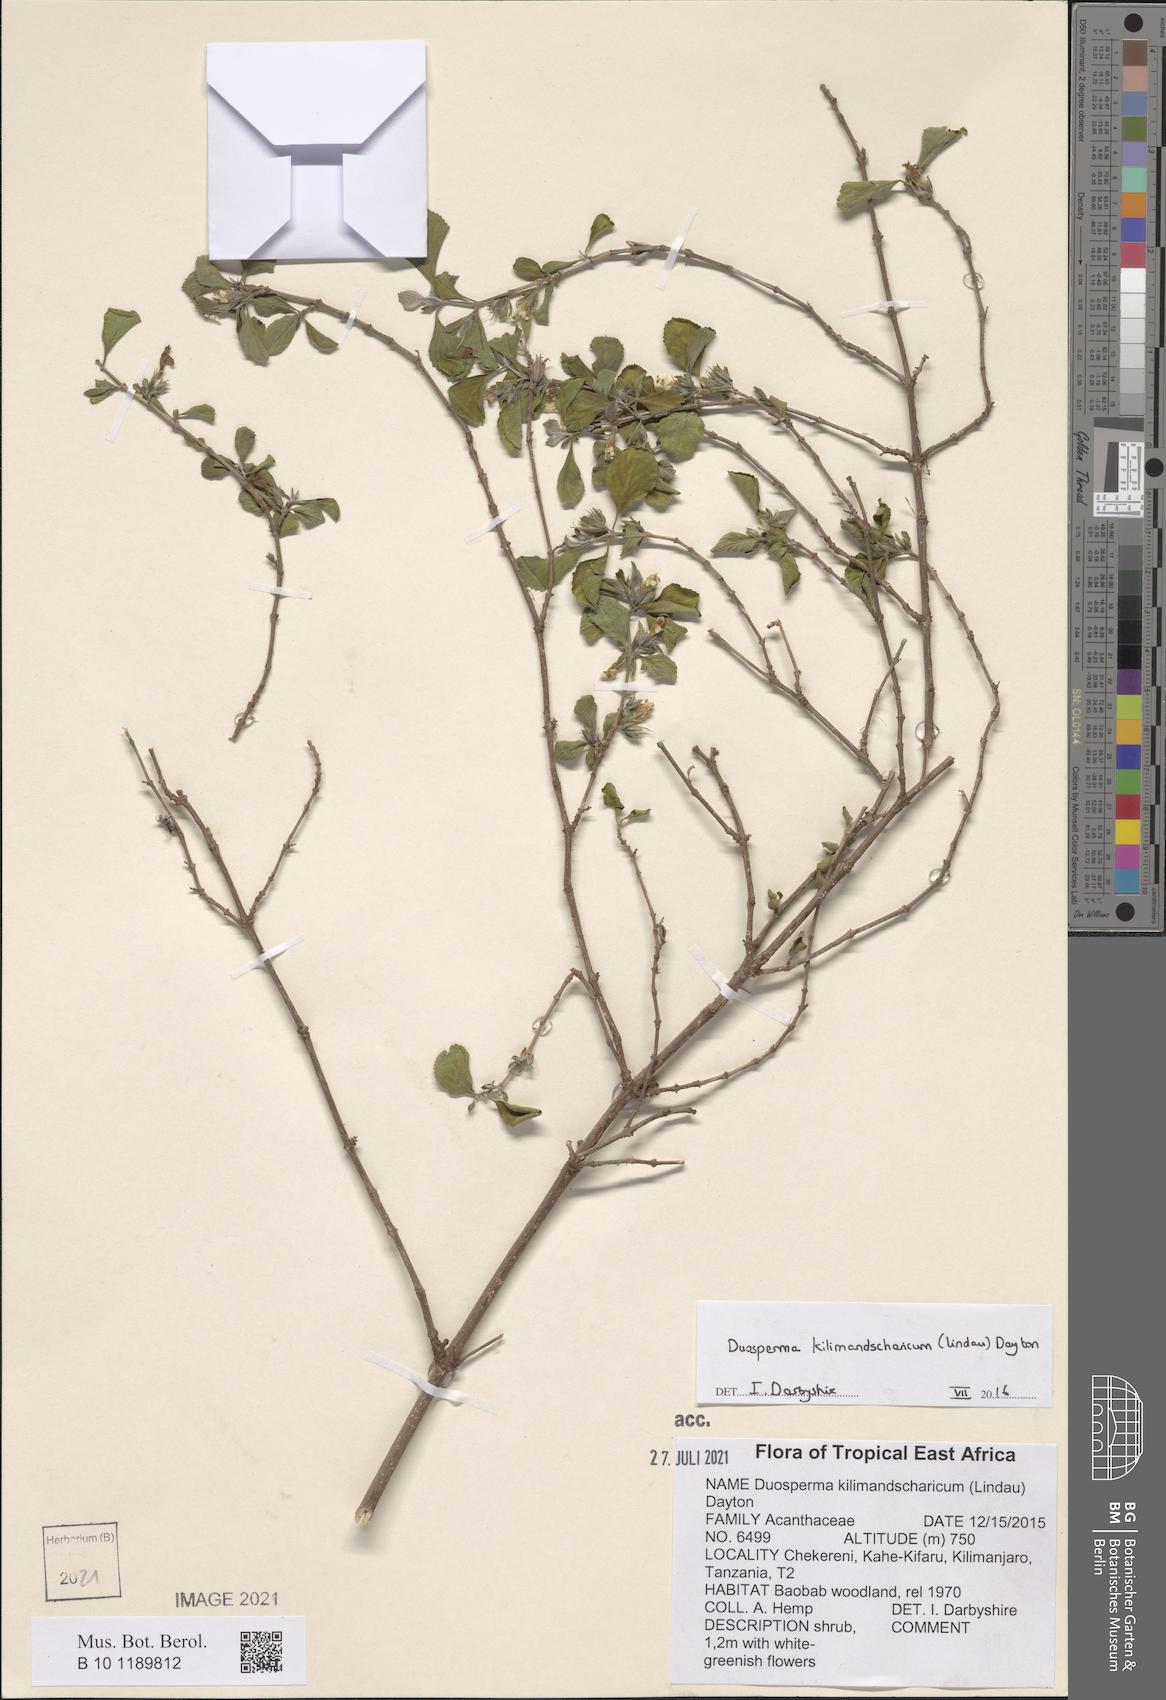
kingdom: Plantae
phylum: Tracheophyta
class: Magnoliopsida
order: Lamiales
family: Acanthaceae
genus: Duosperma
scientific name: Duosperma kilimandscharicum
